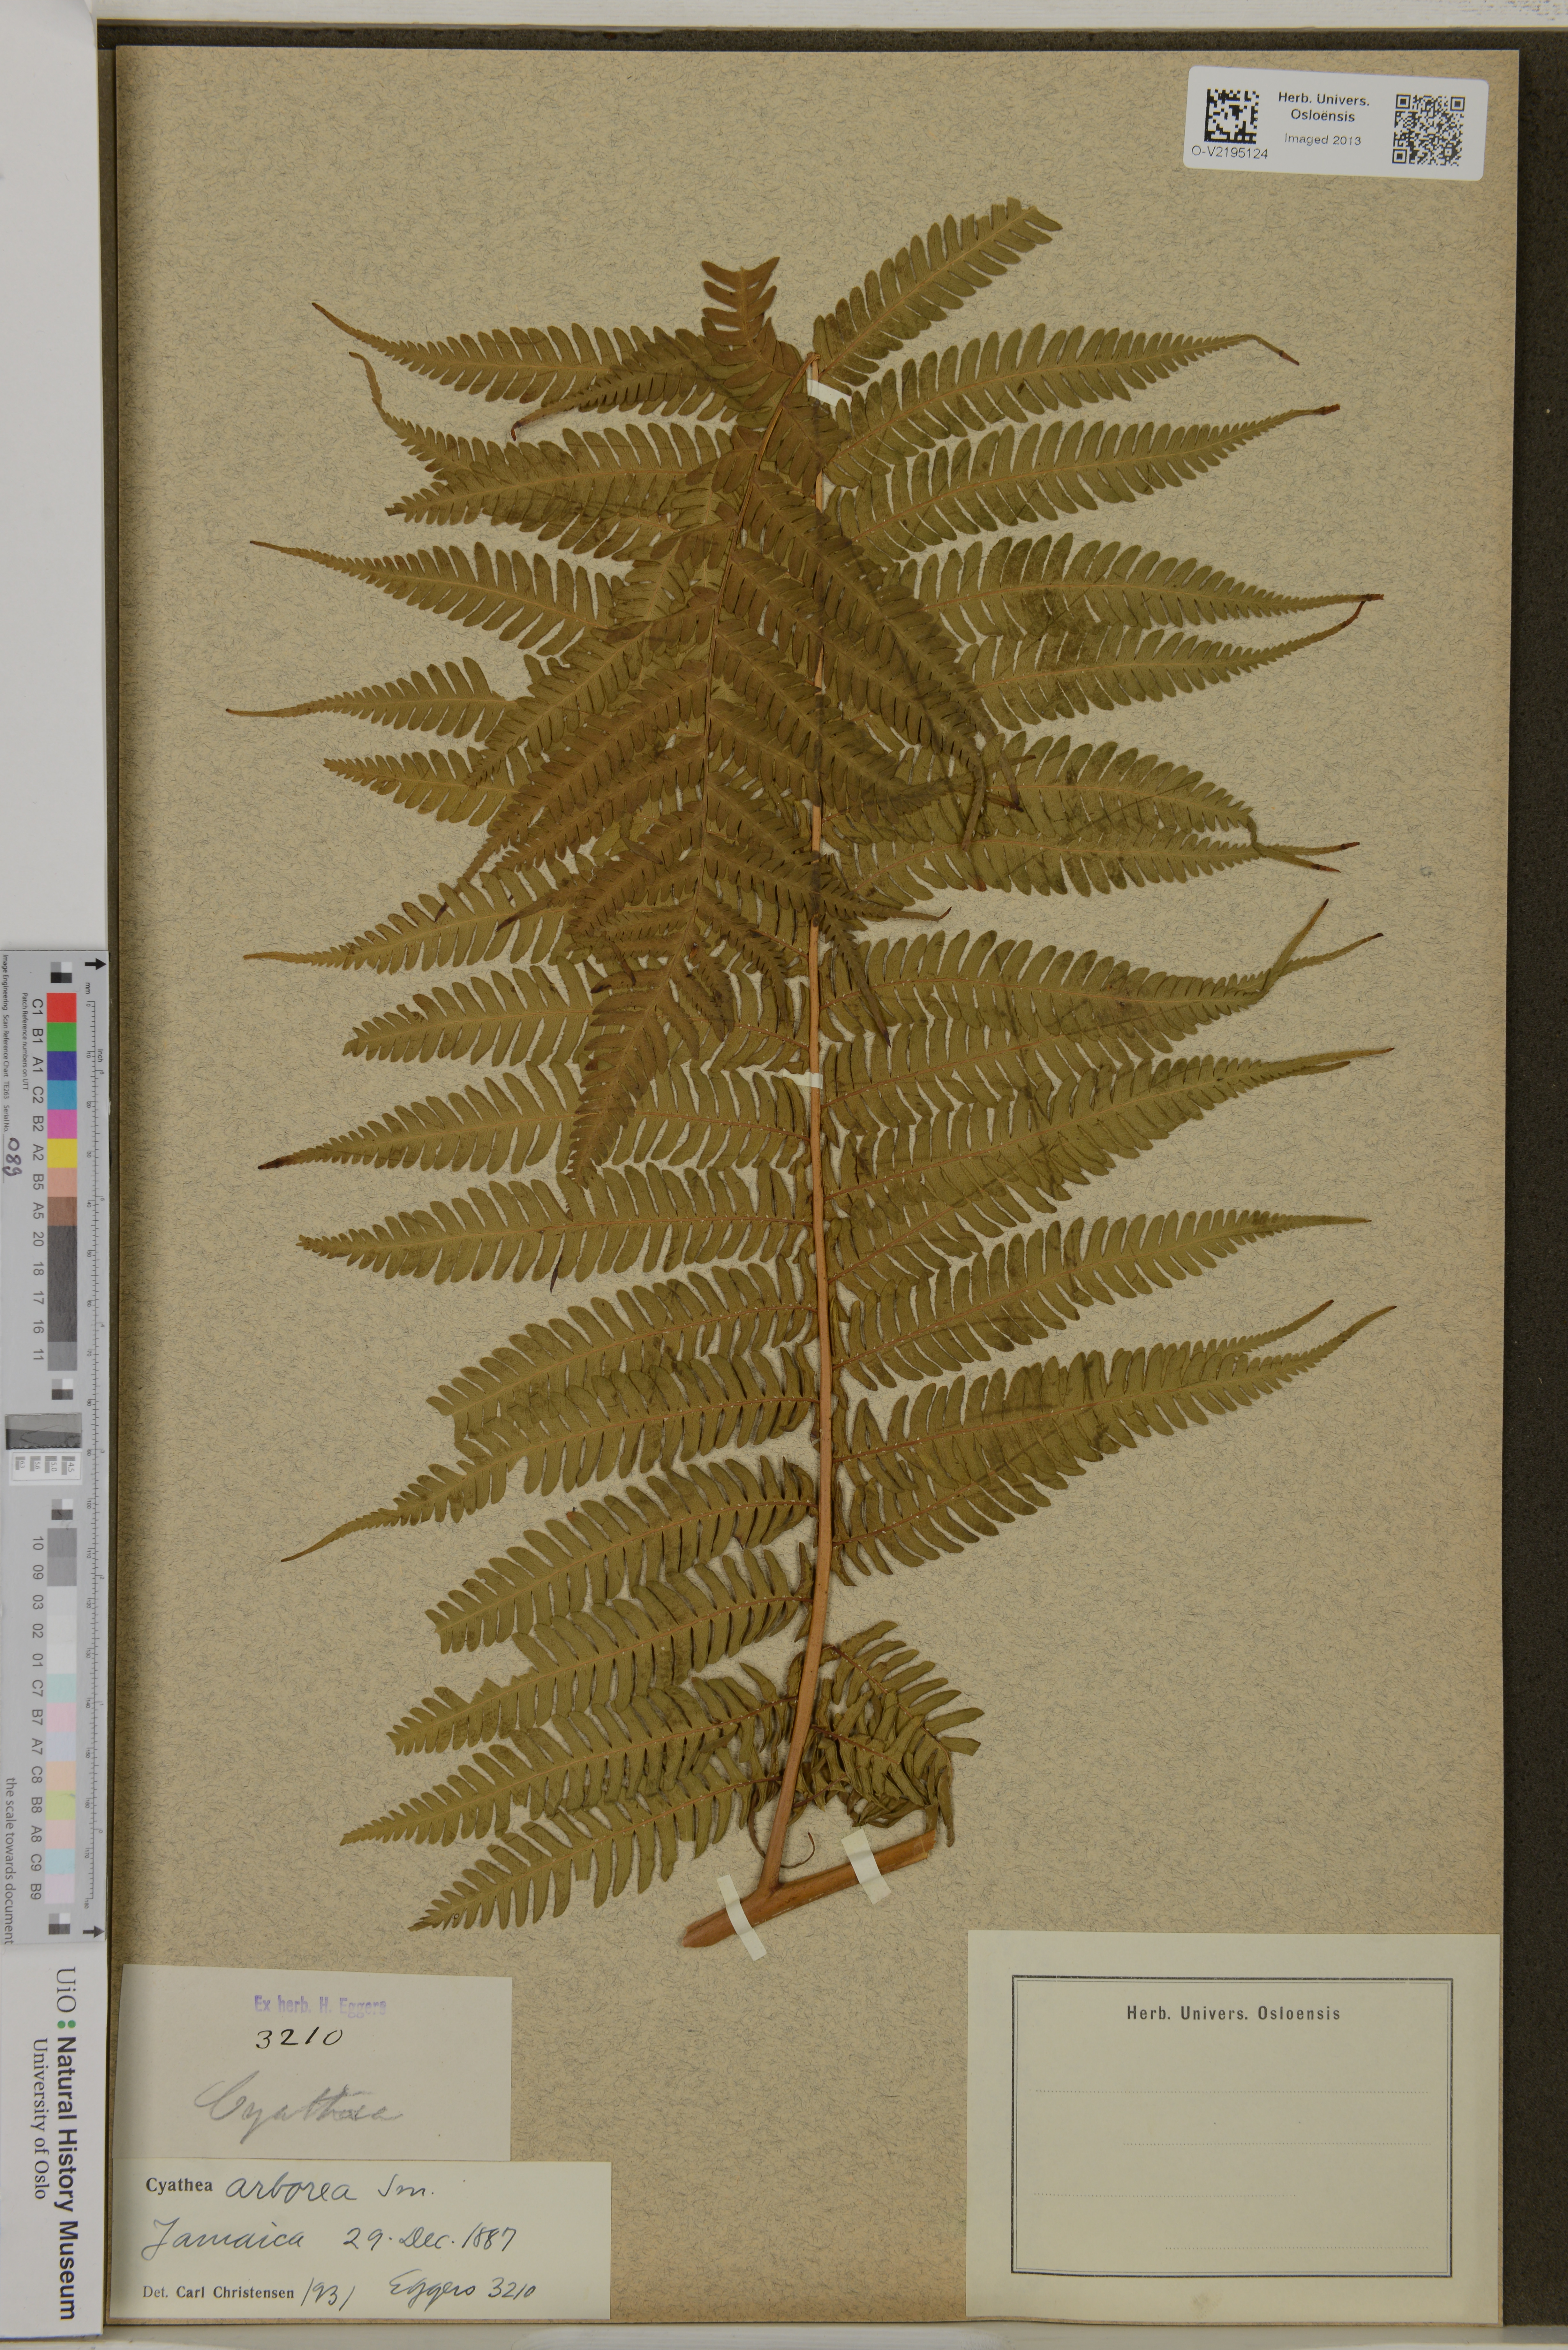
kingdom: Plantae
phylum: Tracheophyta
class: Polypodiopsida
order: Cyatheales
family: Cyatheaceae
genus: Cyathea
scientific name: Cyathea arborea
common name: West indian treefern
